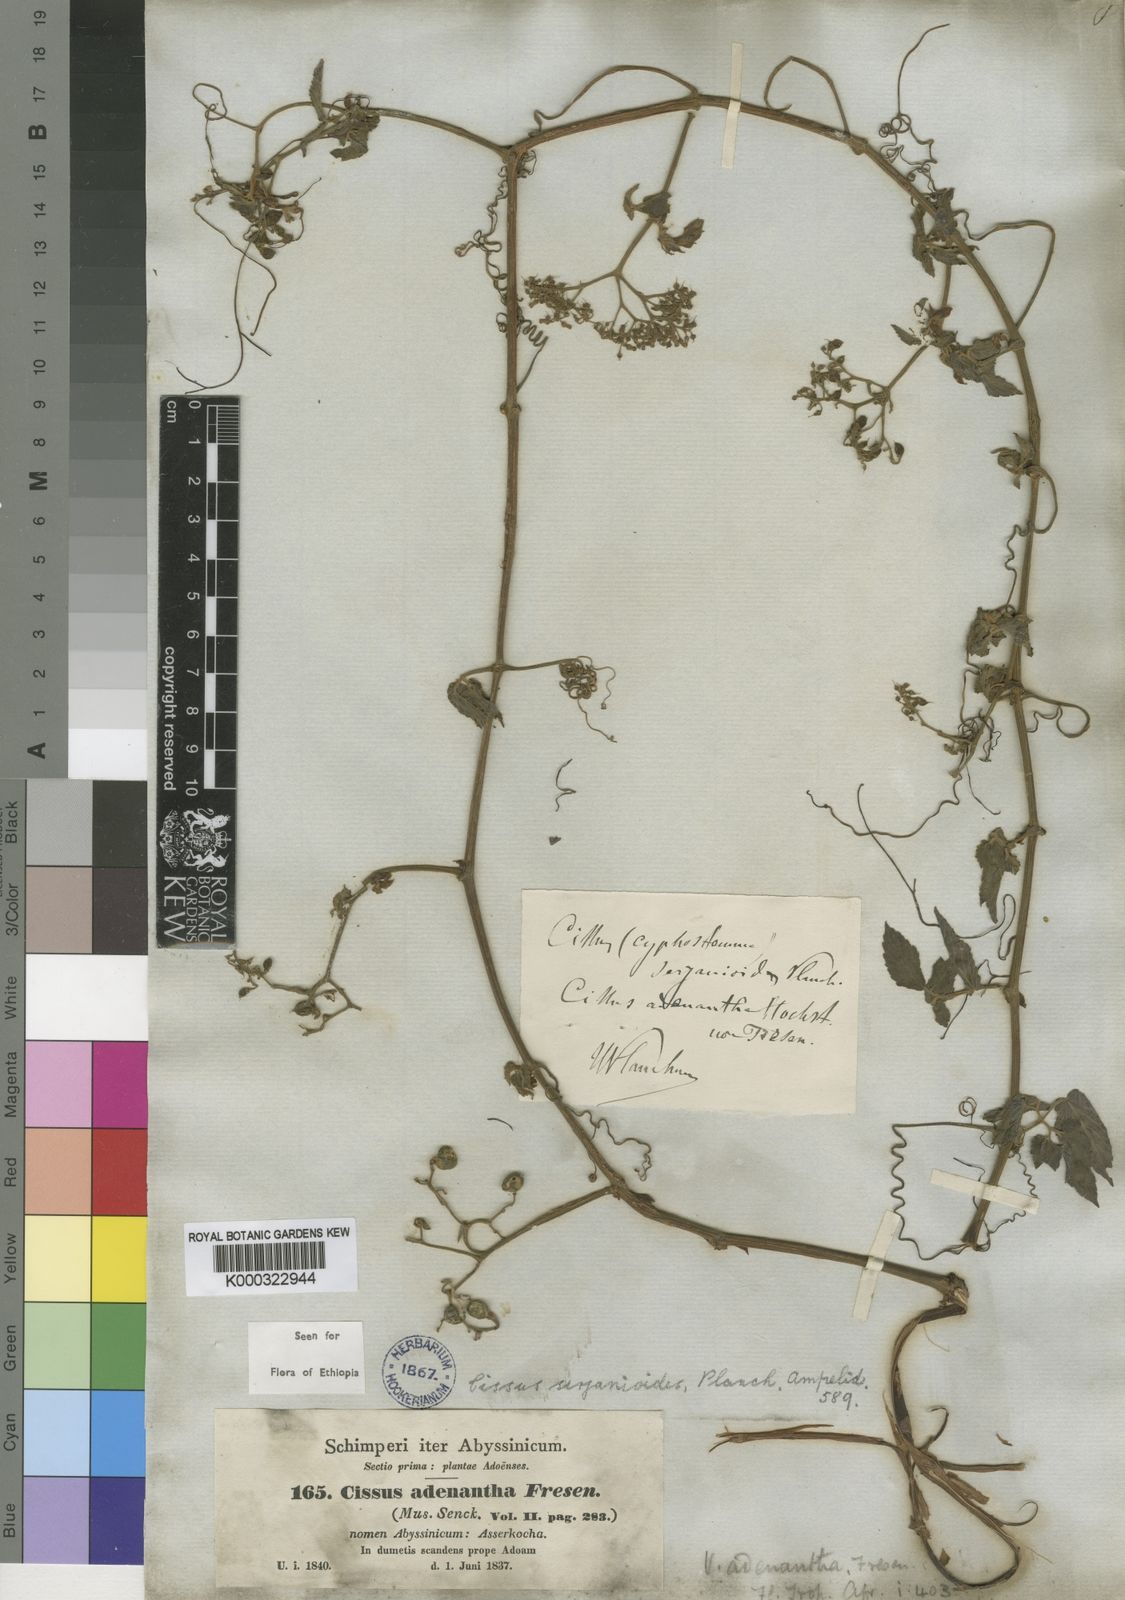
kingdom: Plantae
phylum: Tracheophyta
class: Magnoliopsida
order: Vitales
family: Vitaceae
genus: Cyphostemma
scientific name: Cyphostemma adenocaule
